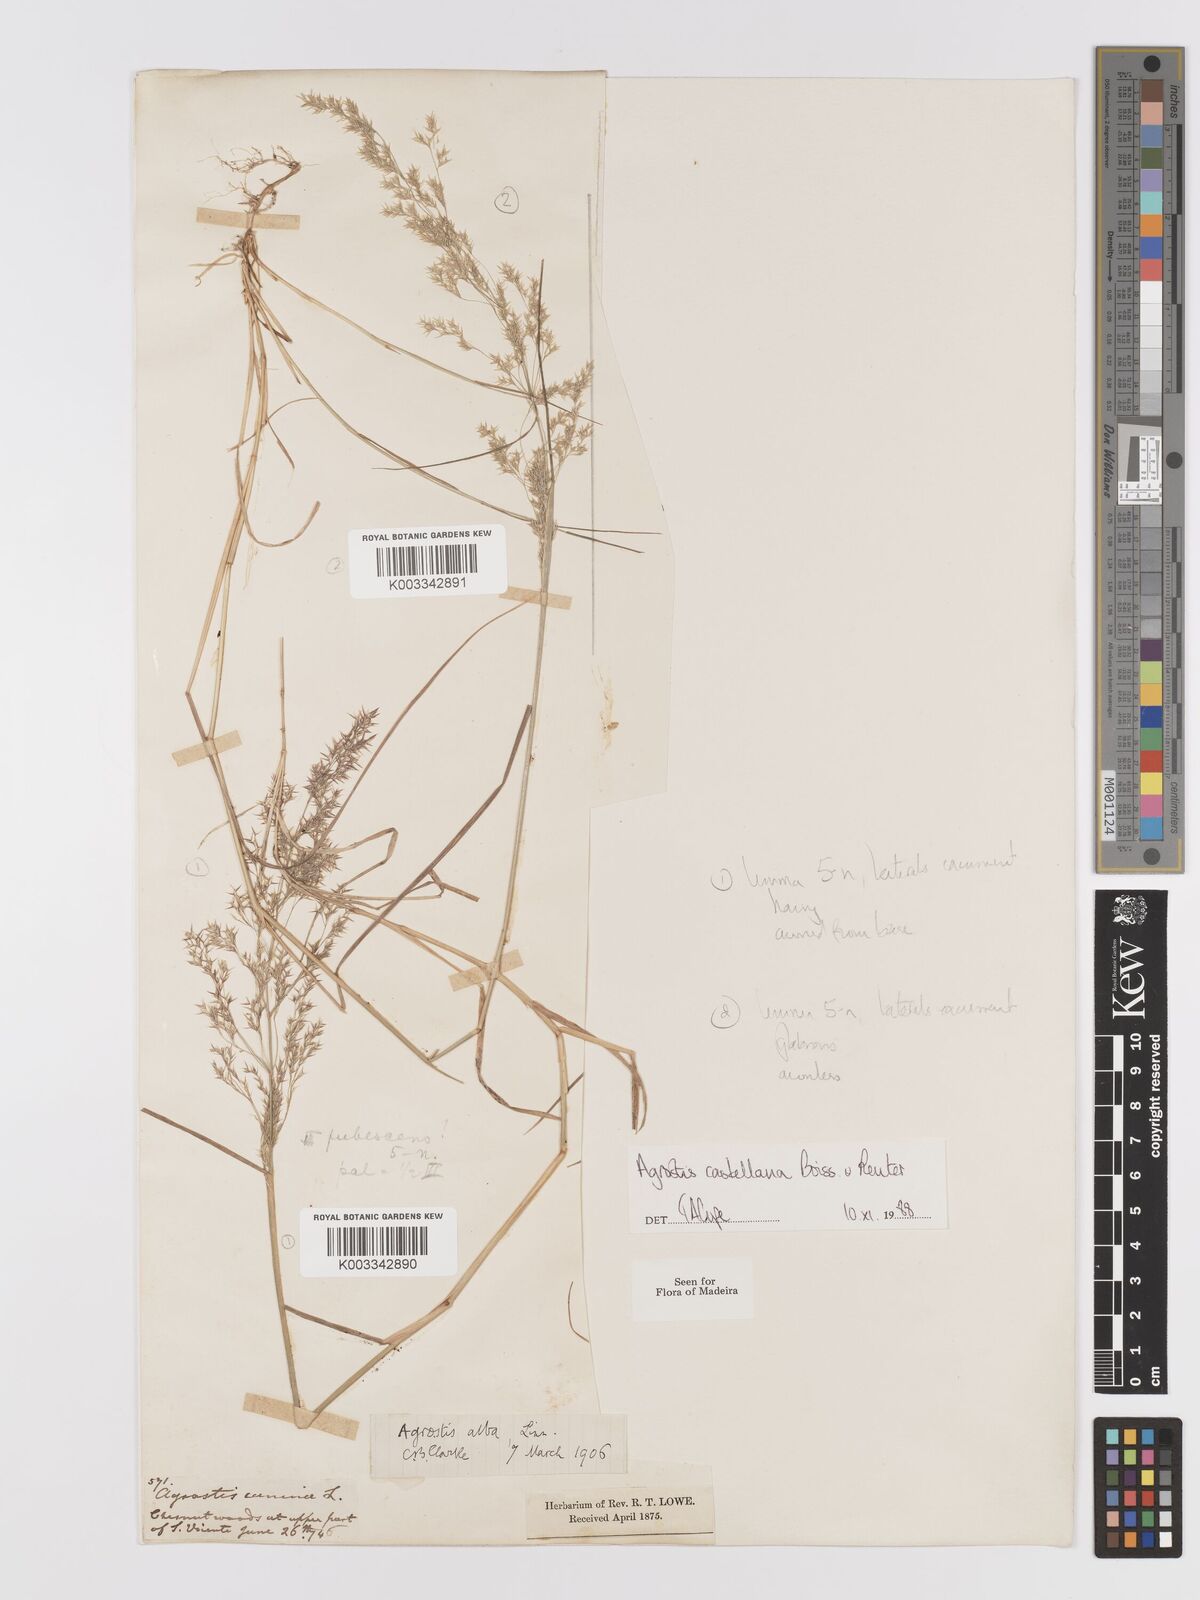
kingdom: Plantae
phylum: Tracheophyta
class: Liliopsida
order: Poales
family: Poaceae
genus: Agrostis
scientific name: Agrostis castellana
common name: Highland bent
